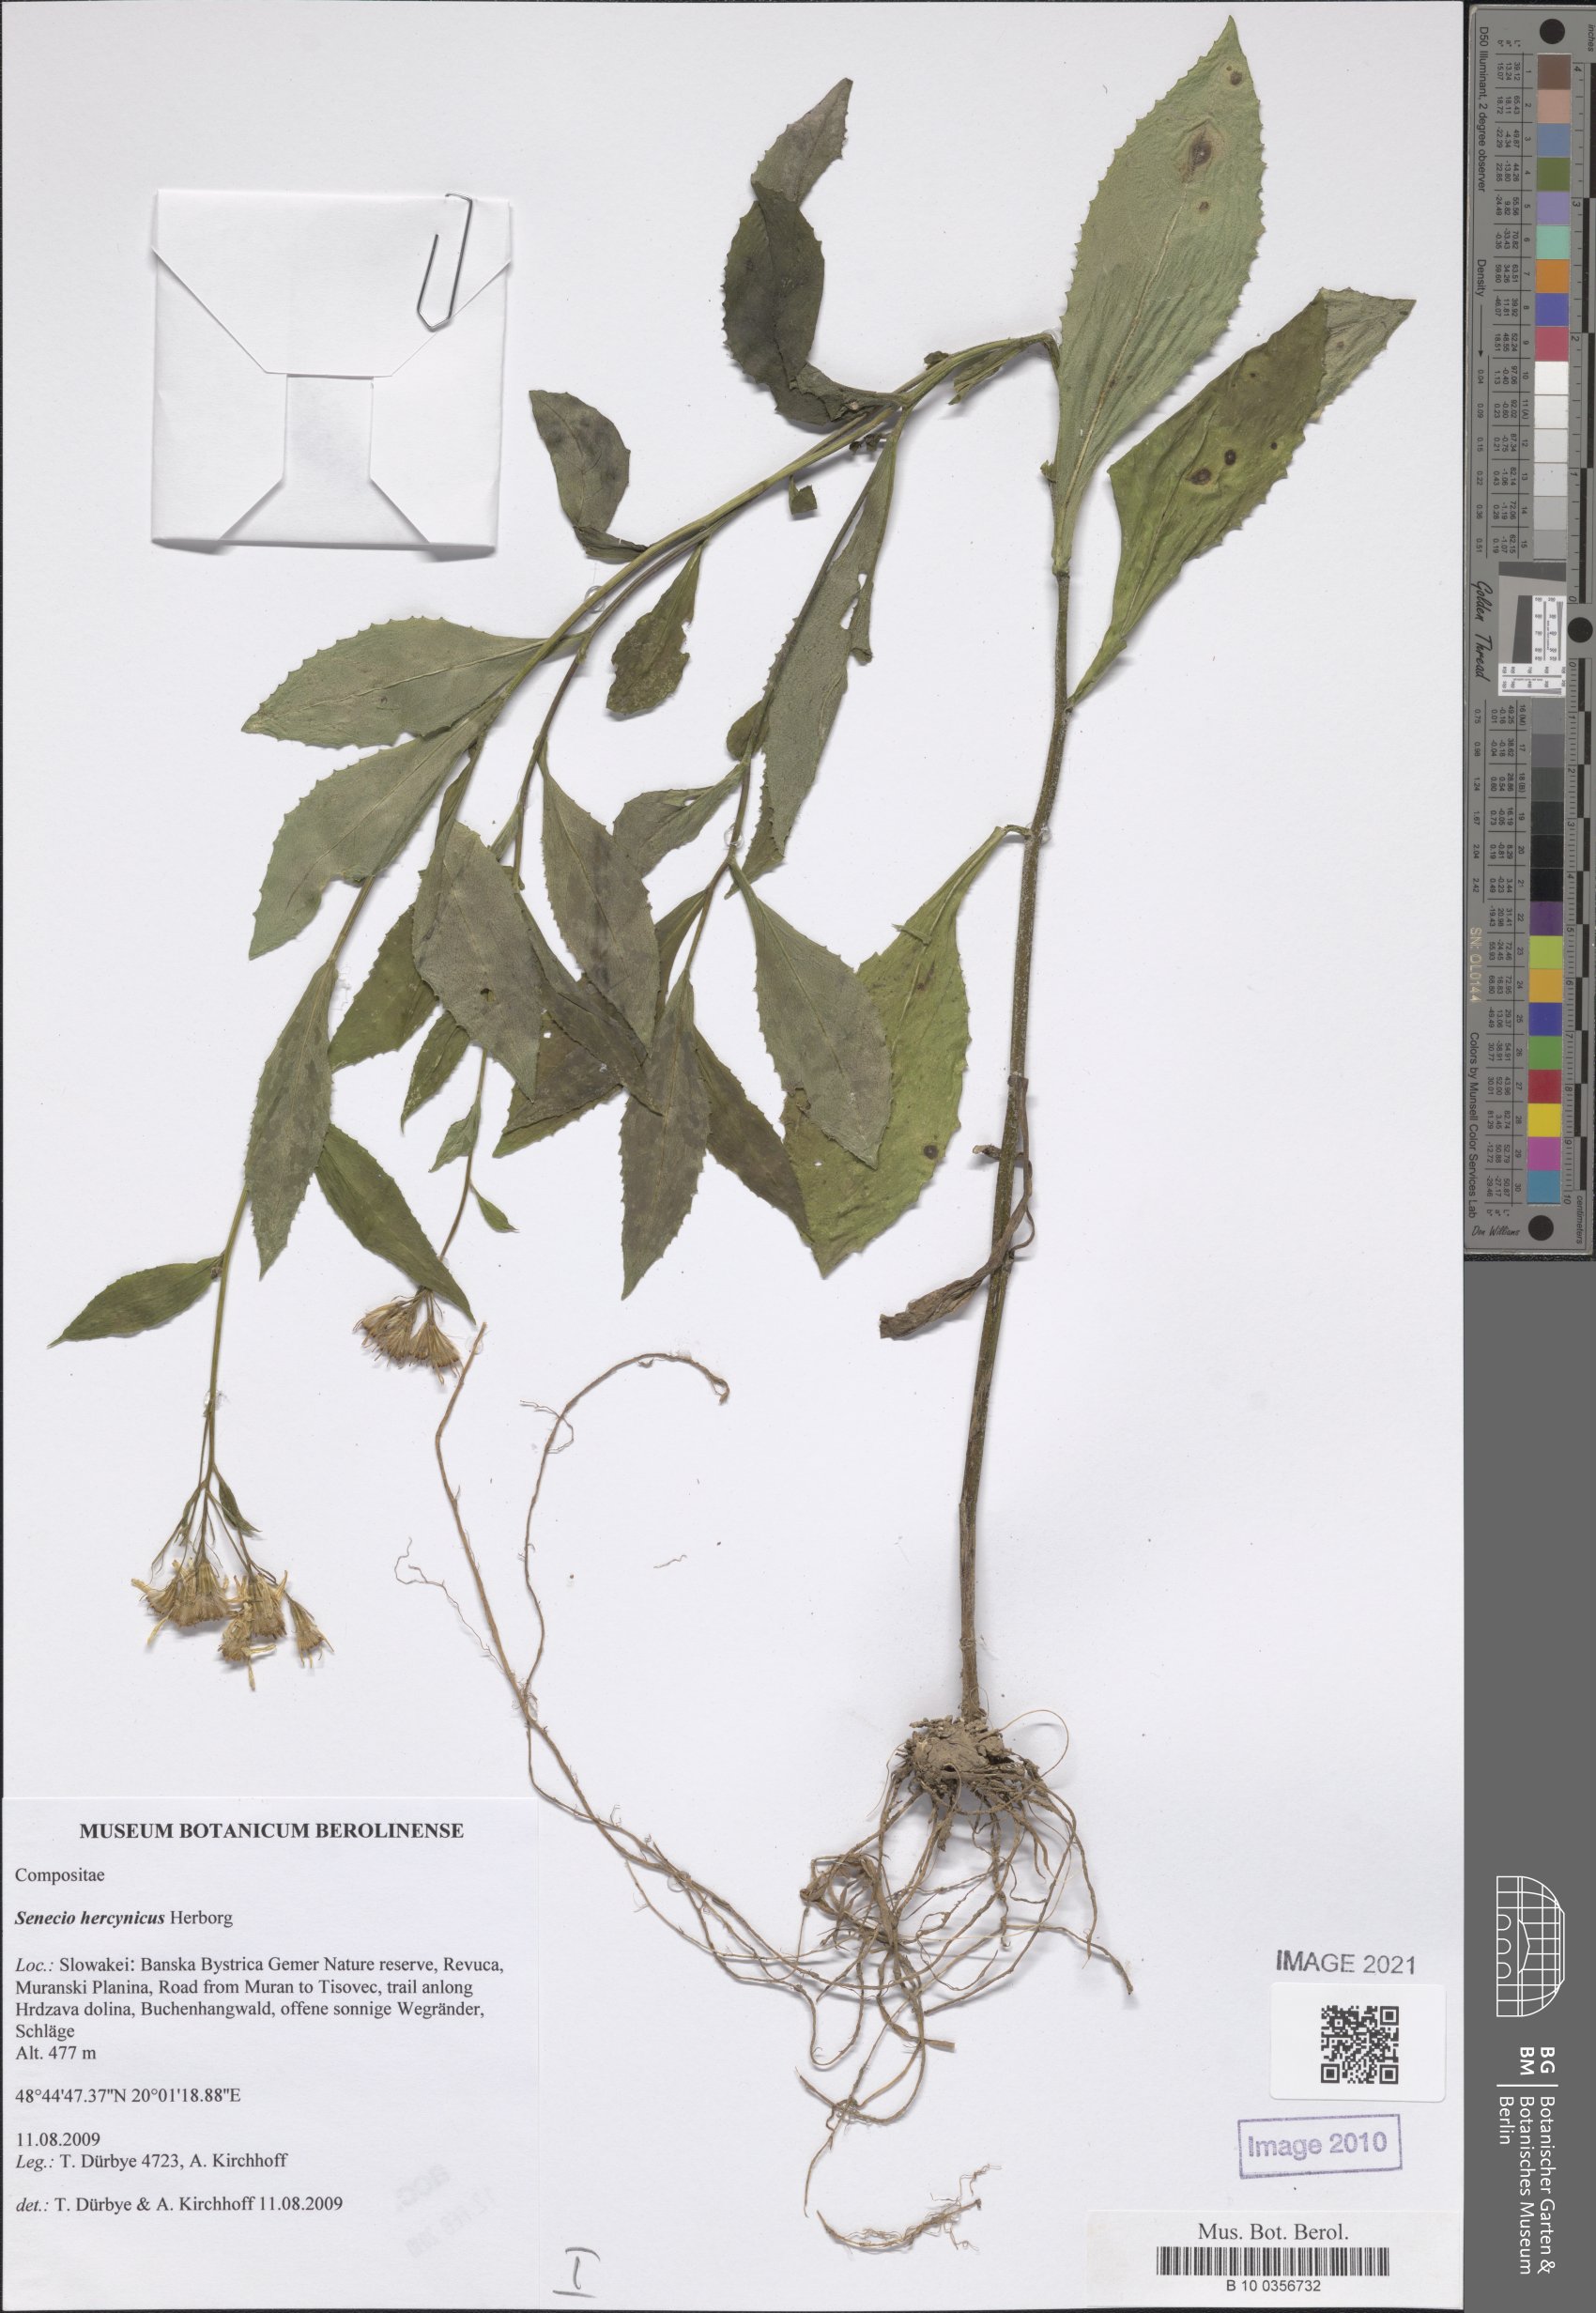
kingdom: Plantae
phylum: Tracheophyta
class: Magnoliopsida
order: Asterales
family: Asteraceae
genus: Senecio
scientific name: Senecio hercynicus
